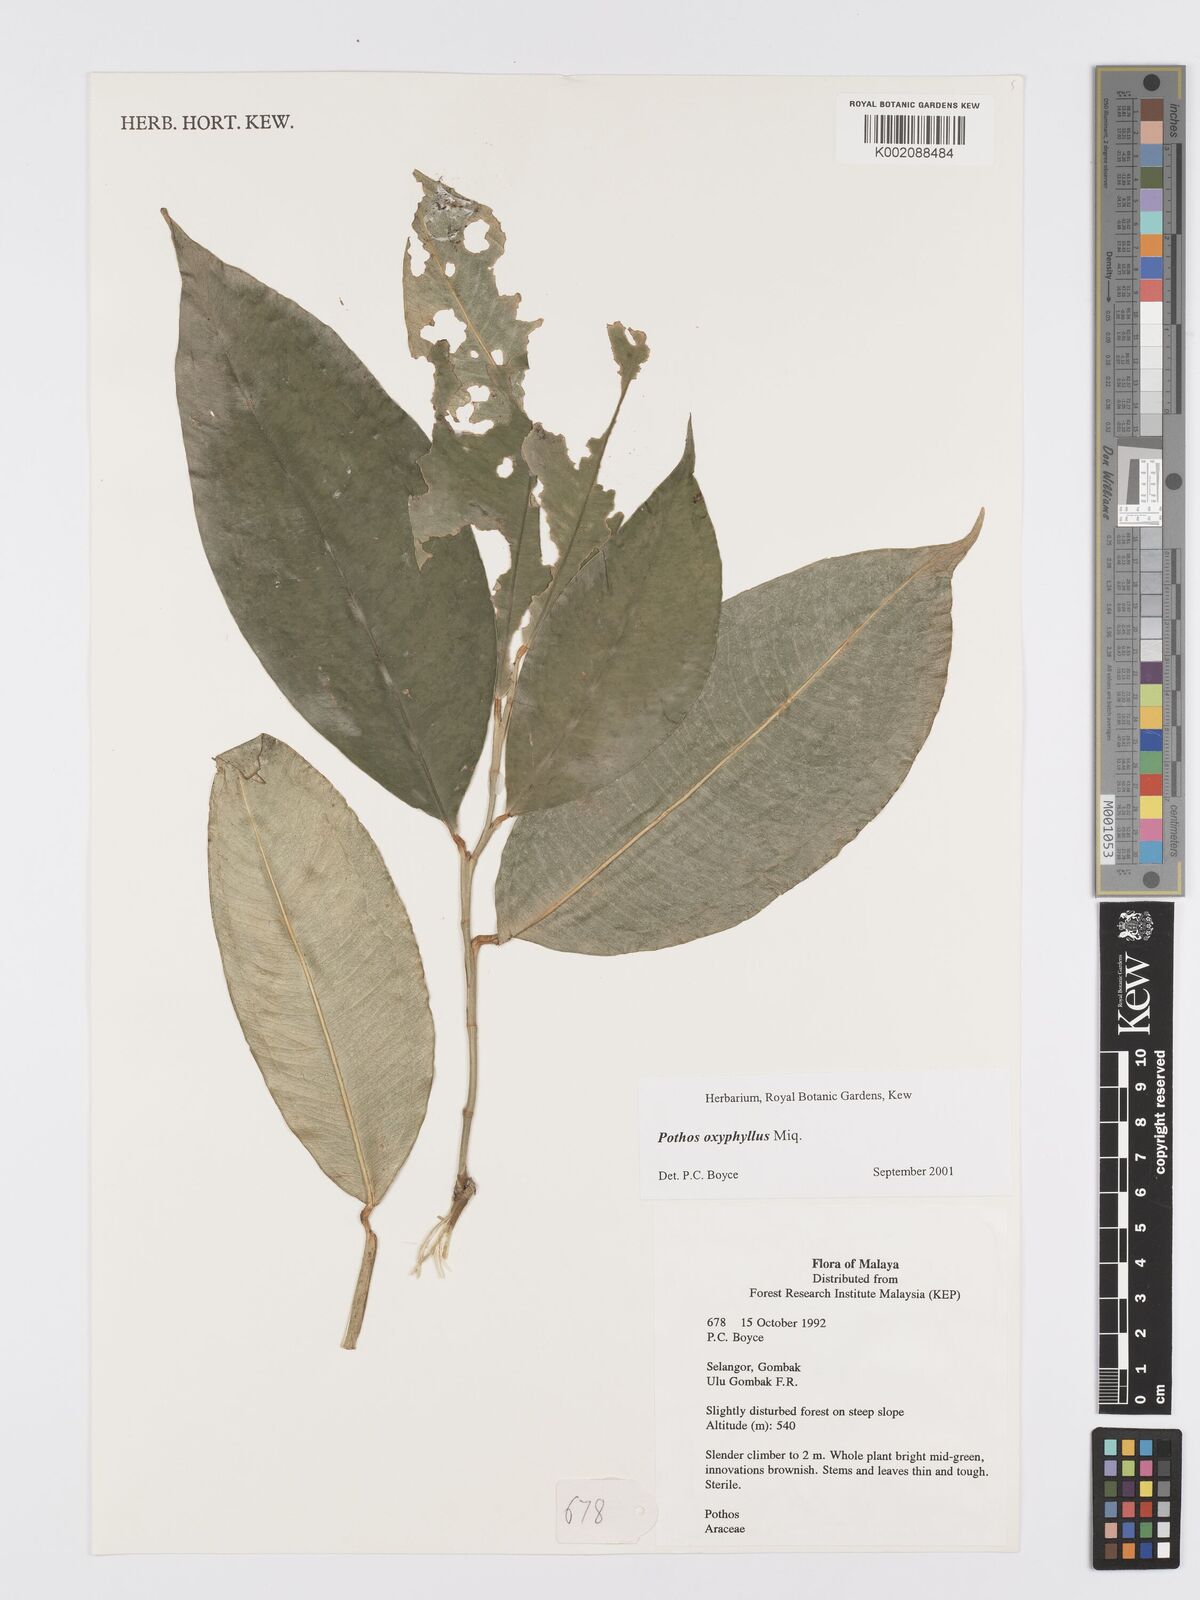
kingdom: Plantae
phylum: Tracheophyta
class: Liliopsida
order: Alismatales
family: Araceae
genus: Pothos
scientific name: Pothos oxyphyllus
